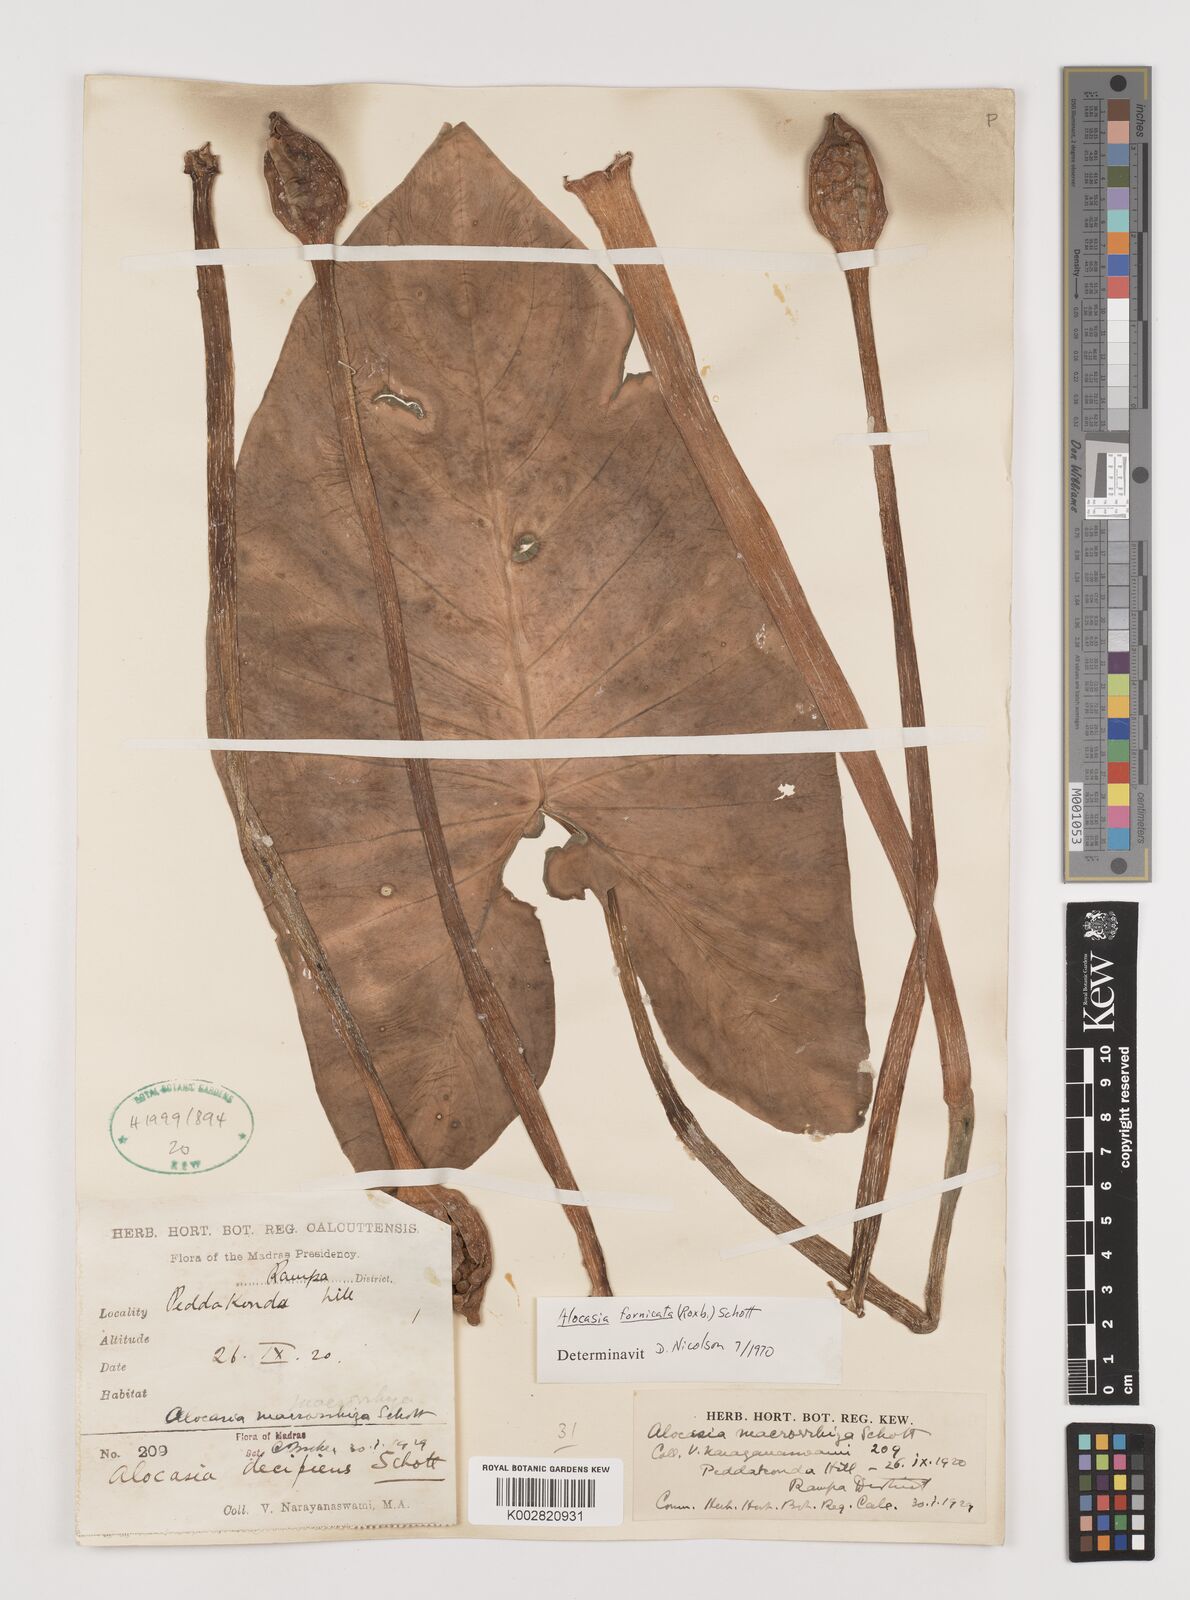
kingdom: Plantae
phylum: Tracheophyta
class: Liliopsida
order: Alismatales
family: Araceae
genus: Alocasia
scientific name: Alocasia fornicata
